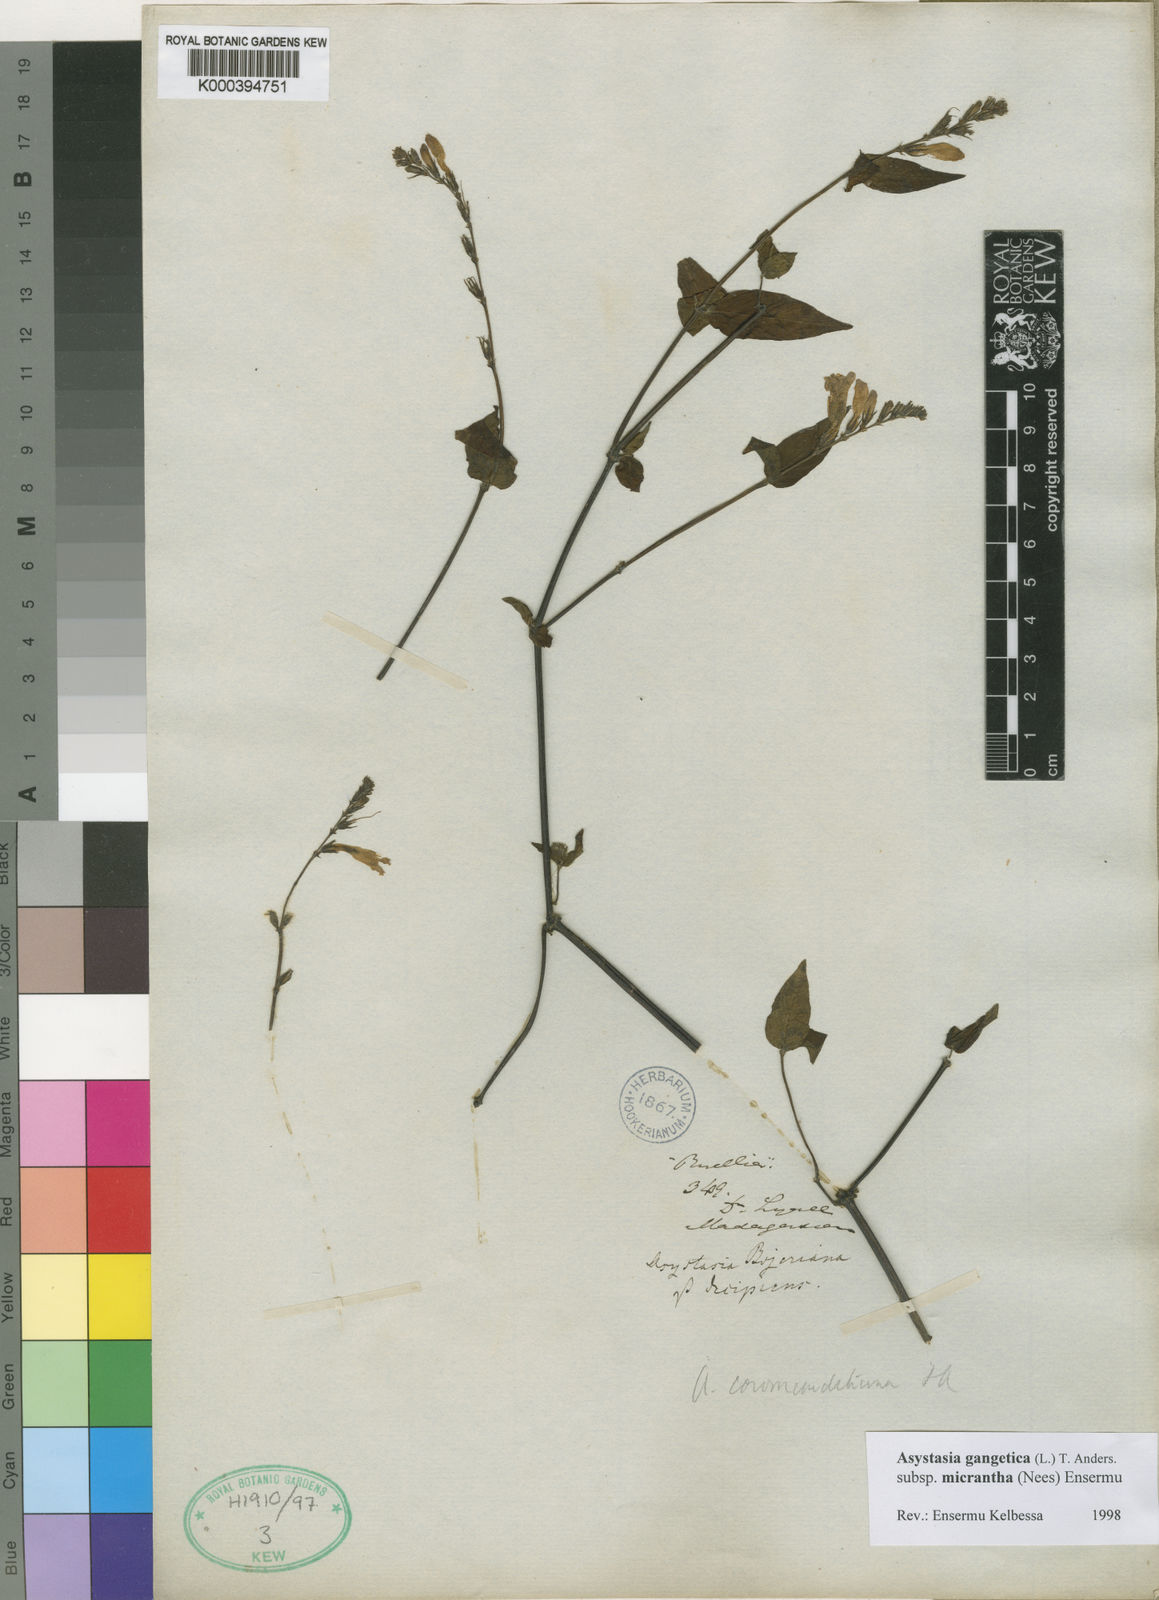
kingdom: Plantae
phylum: Tracheophyta
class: Magnoliopsida
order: Lamiales
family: Acanthaceae
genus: Asystasia
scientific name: Asystasia gangetica
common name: Chinese violet
